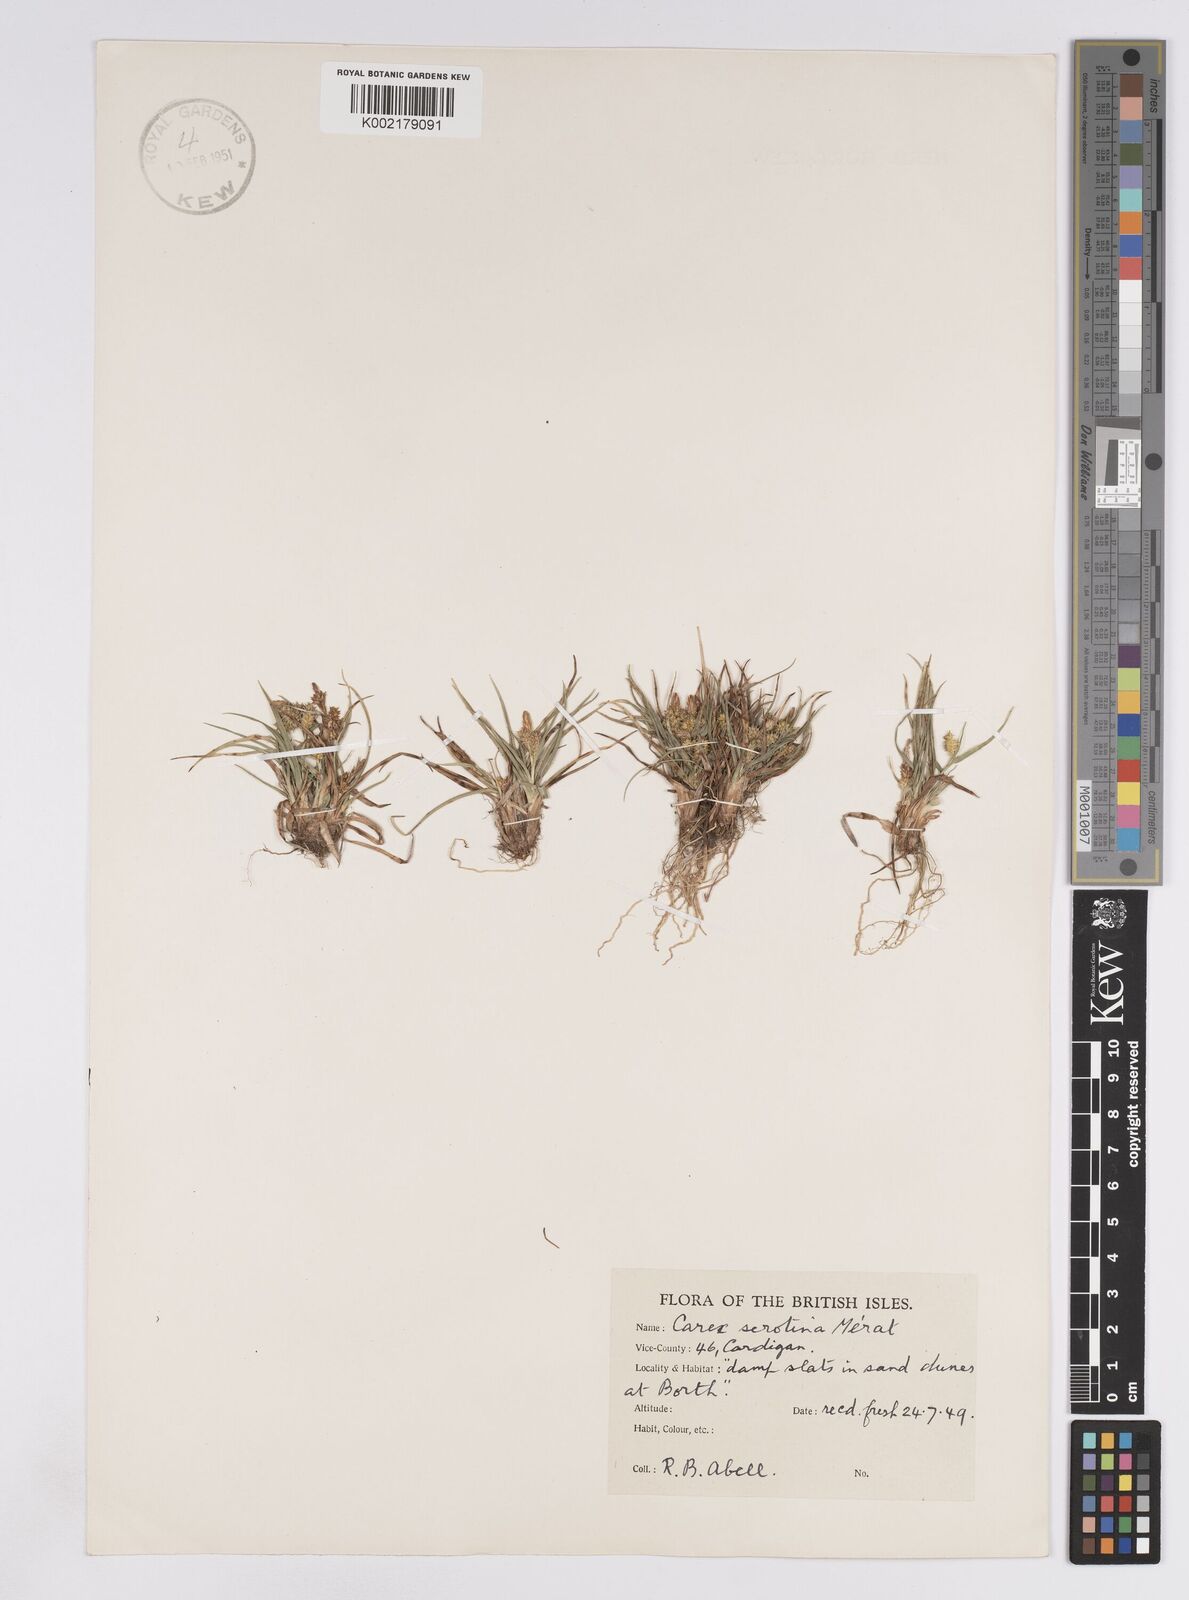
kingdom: Plantae
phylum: Tracheophyta
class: Liliopsida
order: Poales
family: Cyperaceae
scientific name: Cyperaceae
